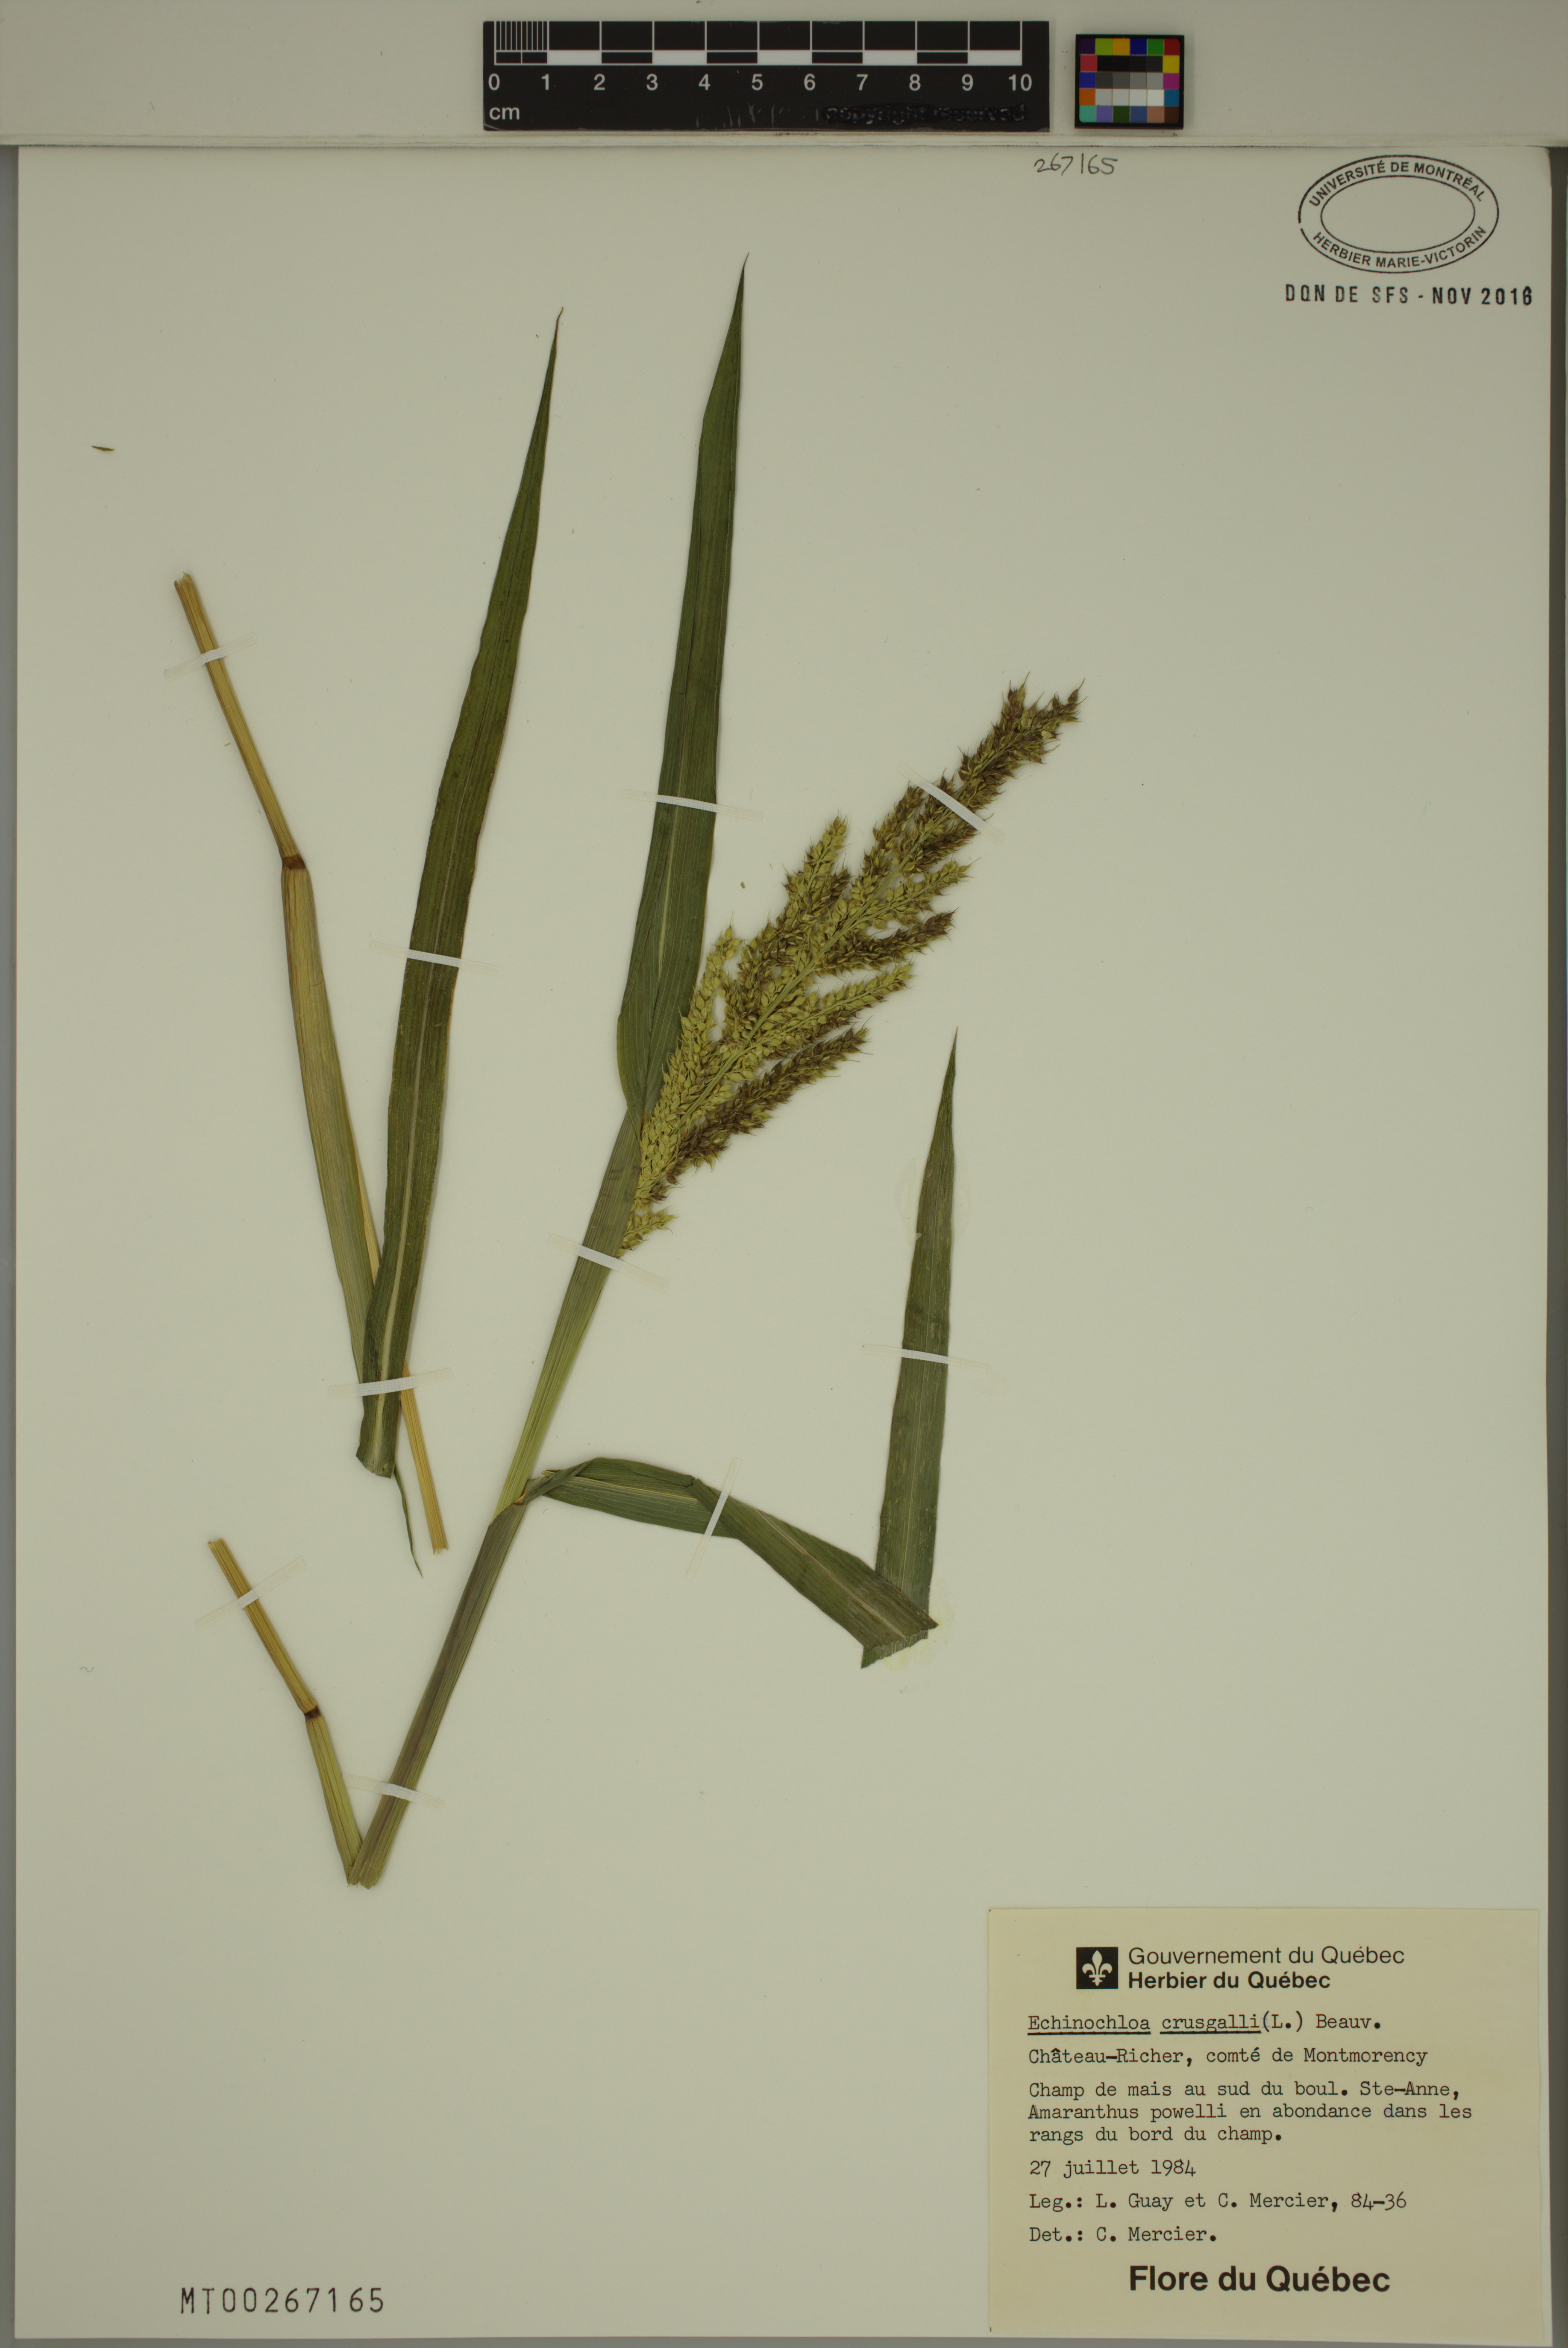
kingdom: Plantae
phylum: Tracheophyta
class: Liliopsida
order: Poales
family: Poaceae
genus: Echinochloa
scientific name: Echinochloa crus-galli
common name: Cockspur
